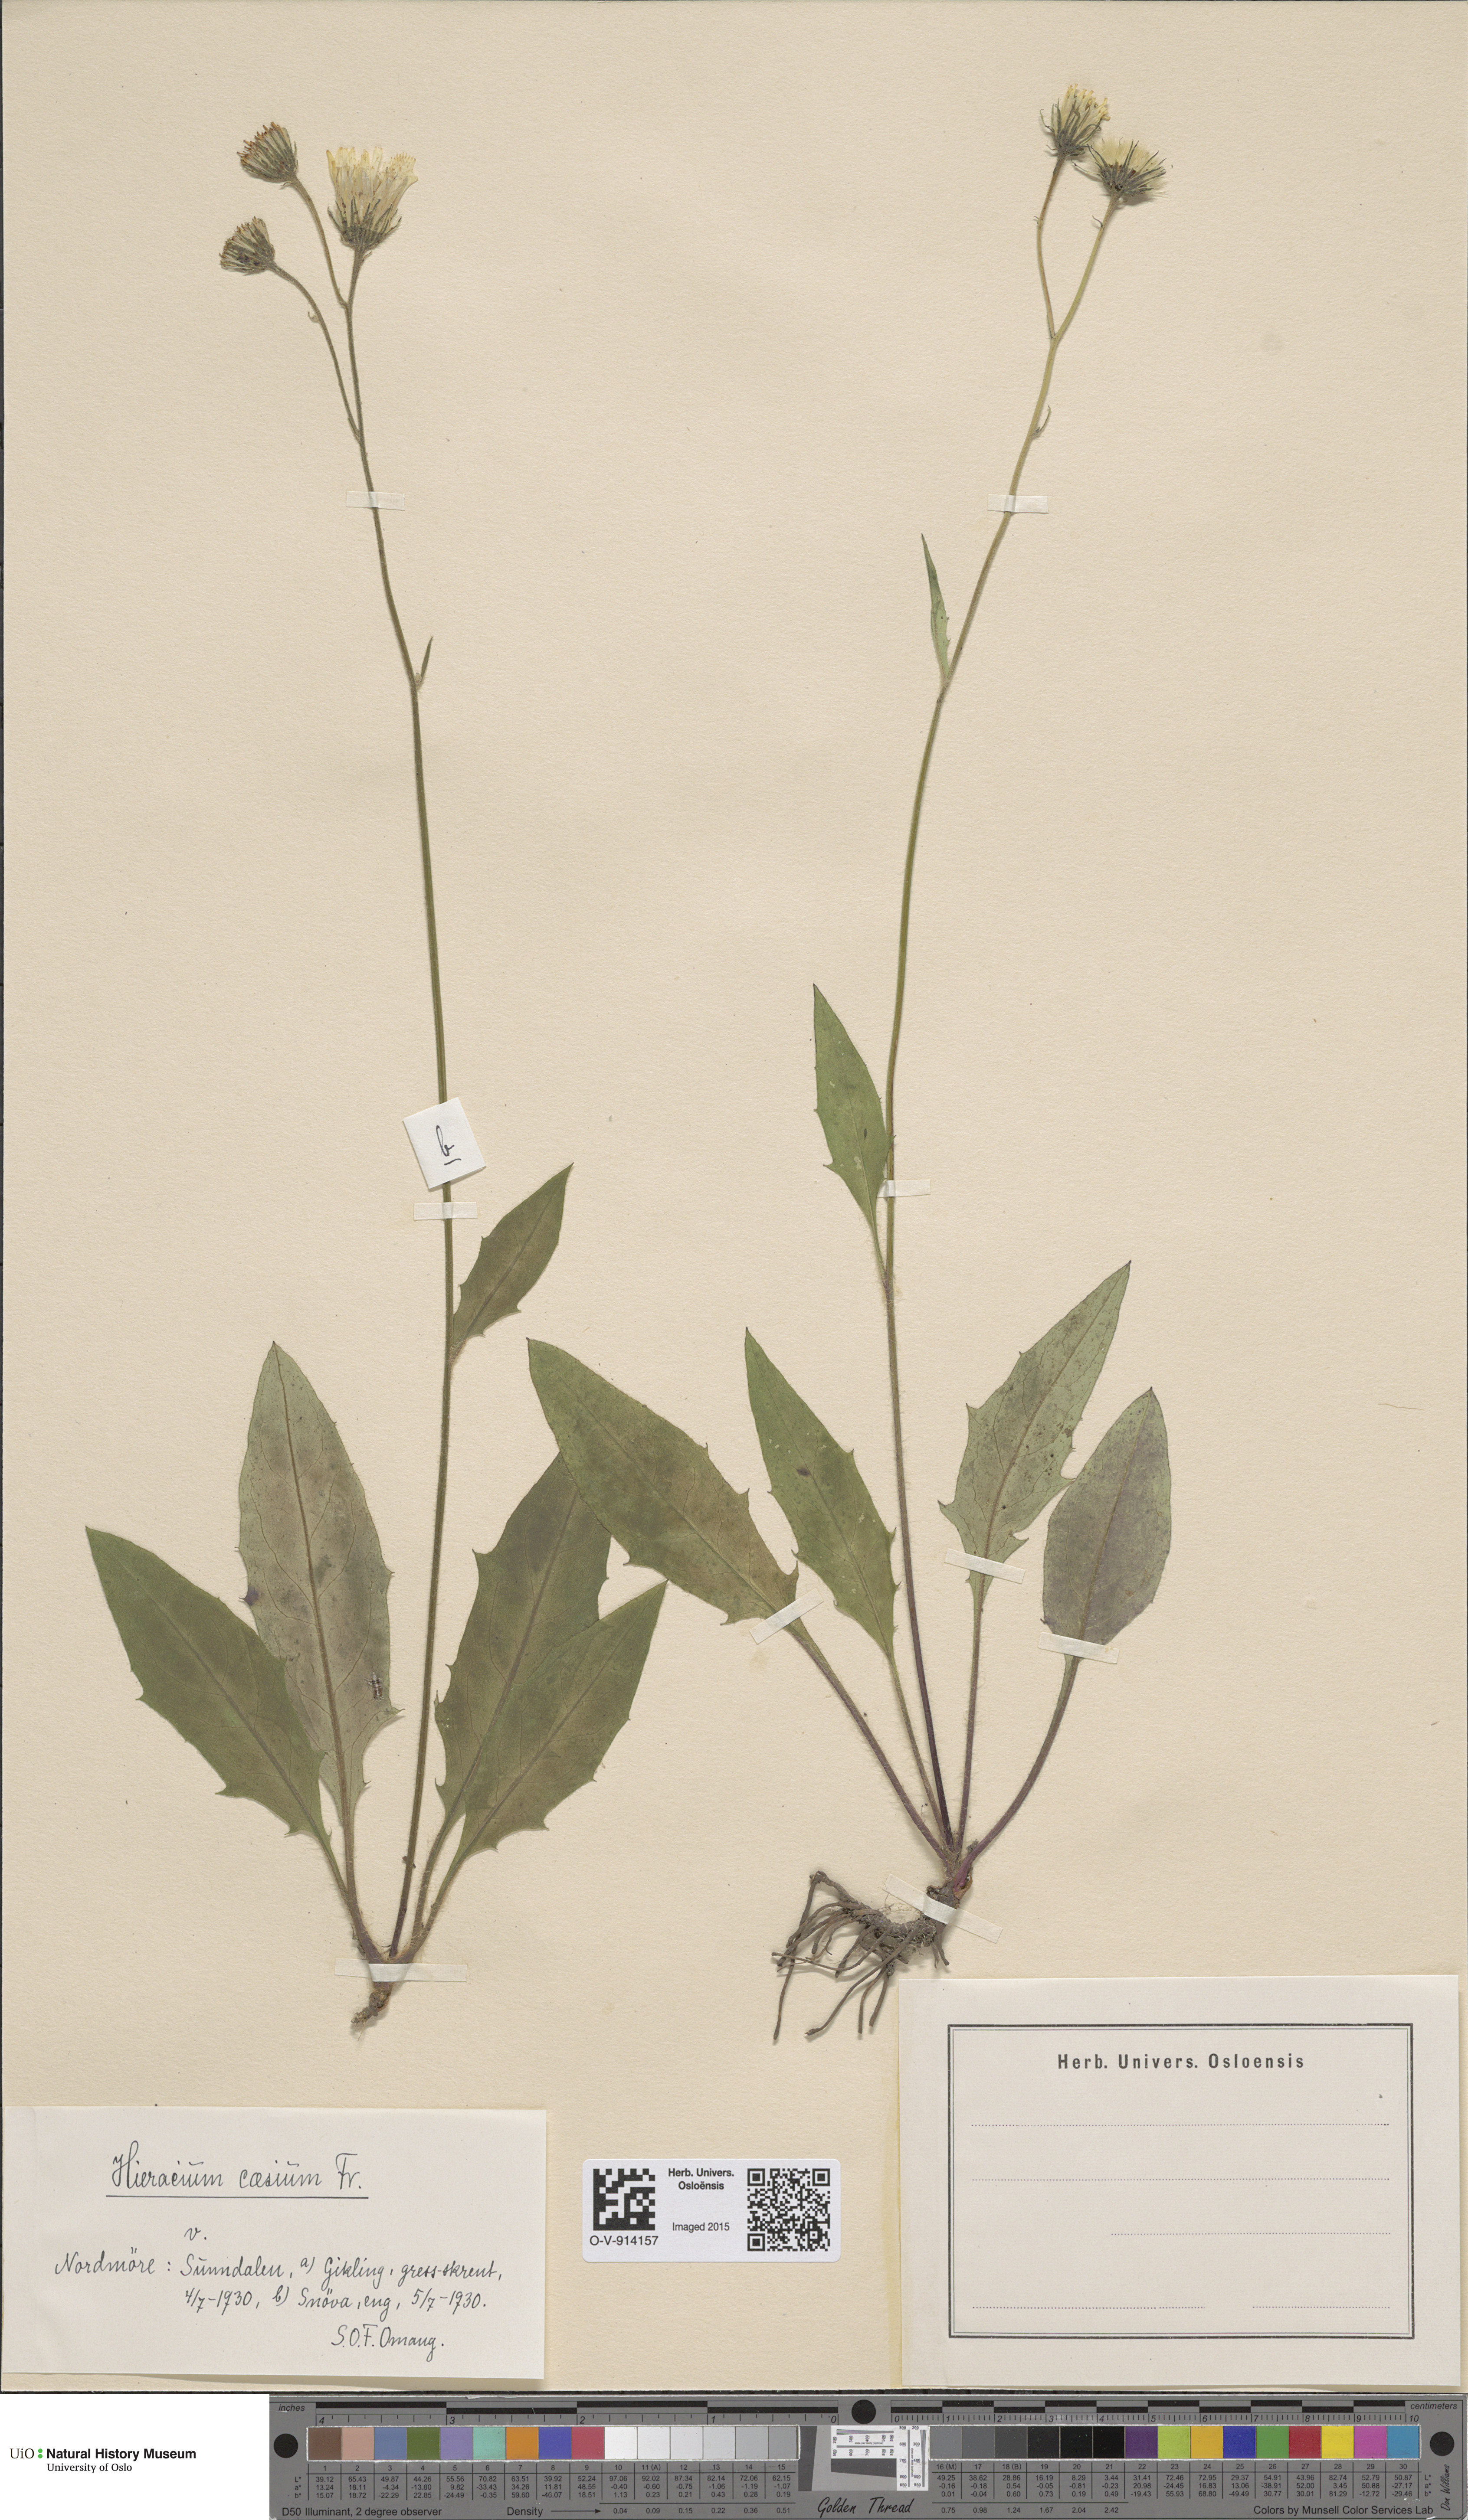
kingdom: Plantae
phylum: Tracheophyta
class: Magnoliopsida
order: Asterales
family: Asteraceae
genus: Hieracium
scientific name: Hieracium caesium
